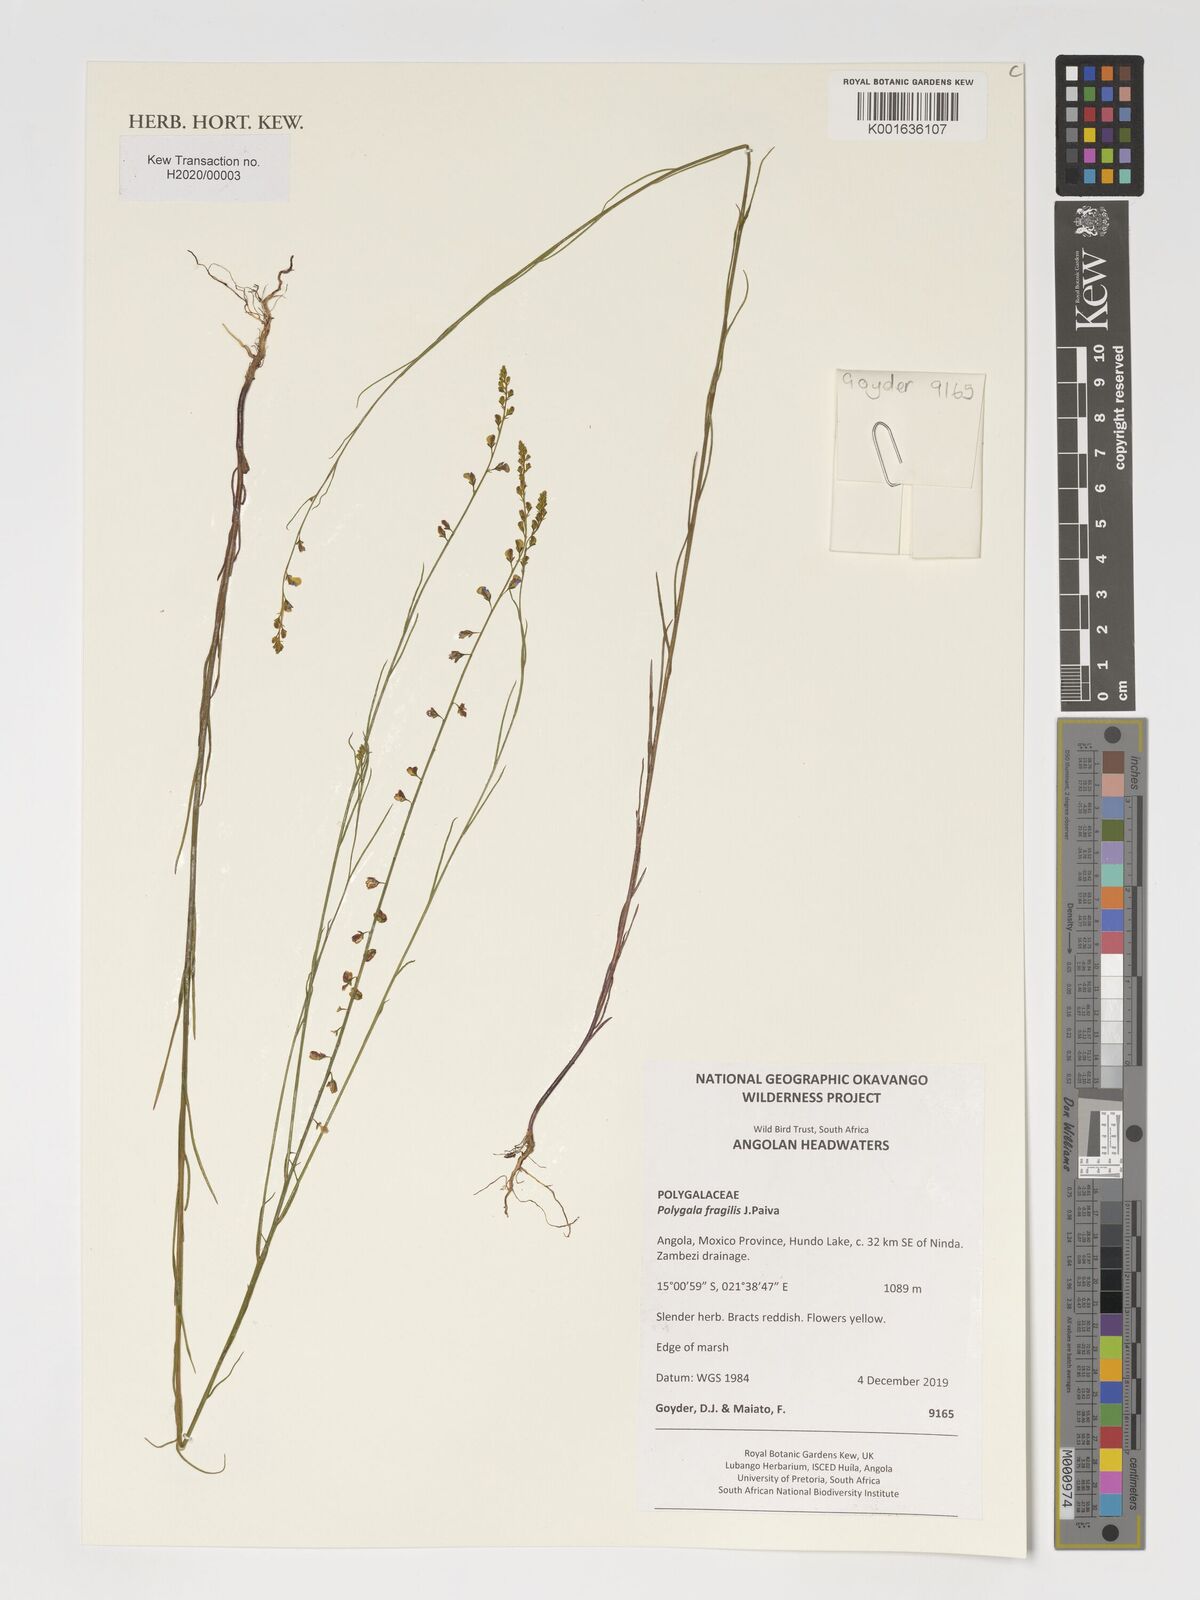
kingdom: Plantae
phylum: Tracheophyta
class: Magnoliopsida
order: Fabales
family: Polygalaceae
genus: Polygala
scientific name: Polygala fragilis
